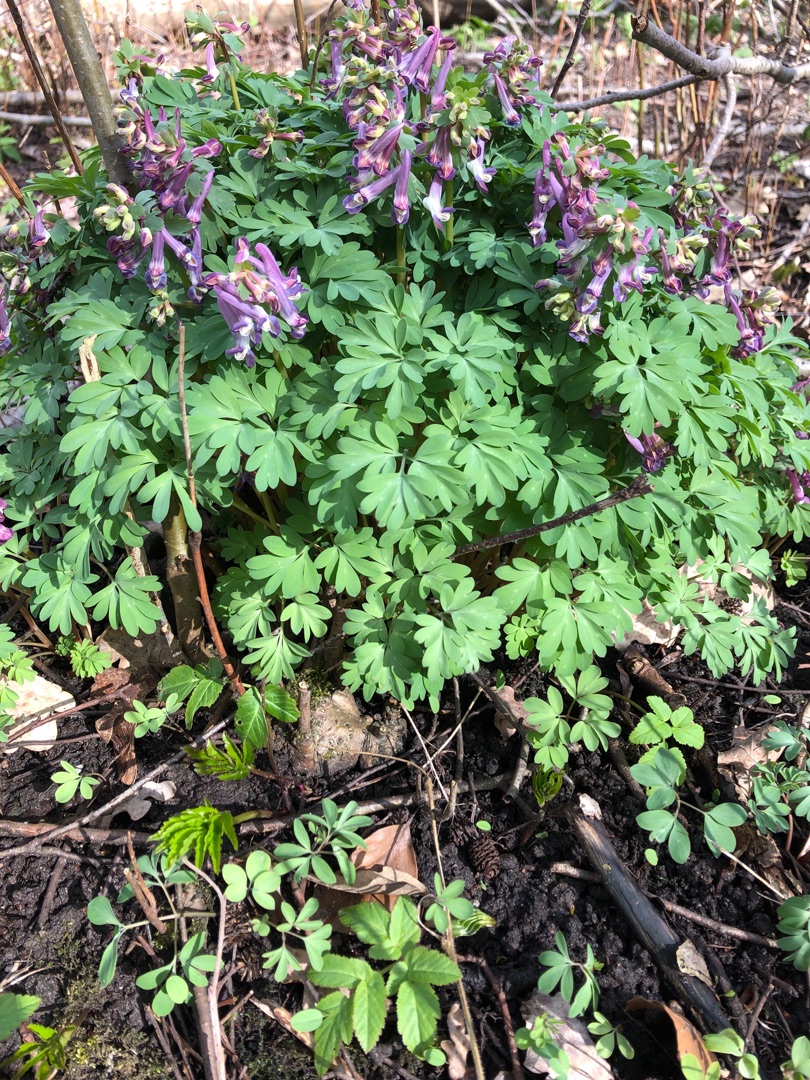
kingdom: Plantae
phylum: Tracheophyta
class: Magnoliopsida
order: Ranunculales
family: Papaveraceae
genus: Corydalis
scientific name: Corydalis solida
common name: Langstilket lærkespore
